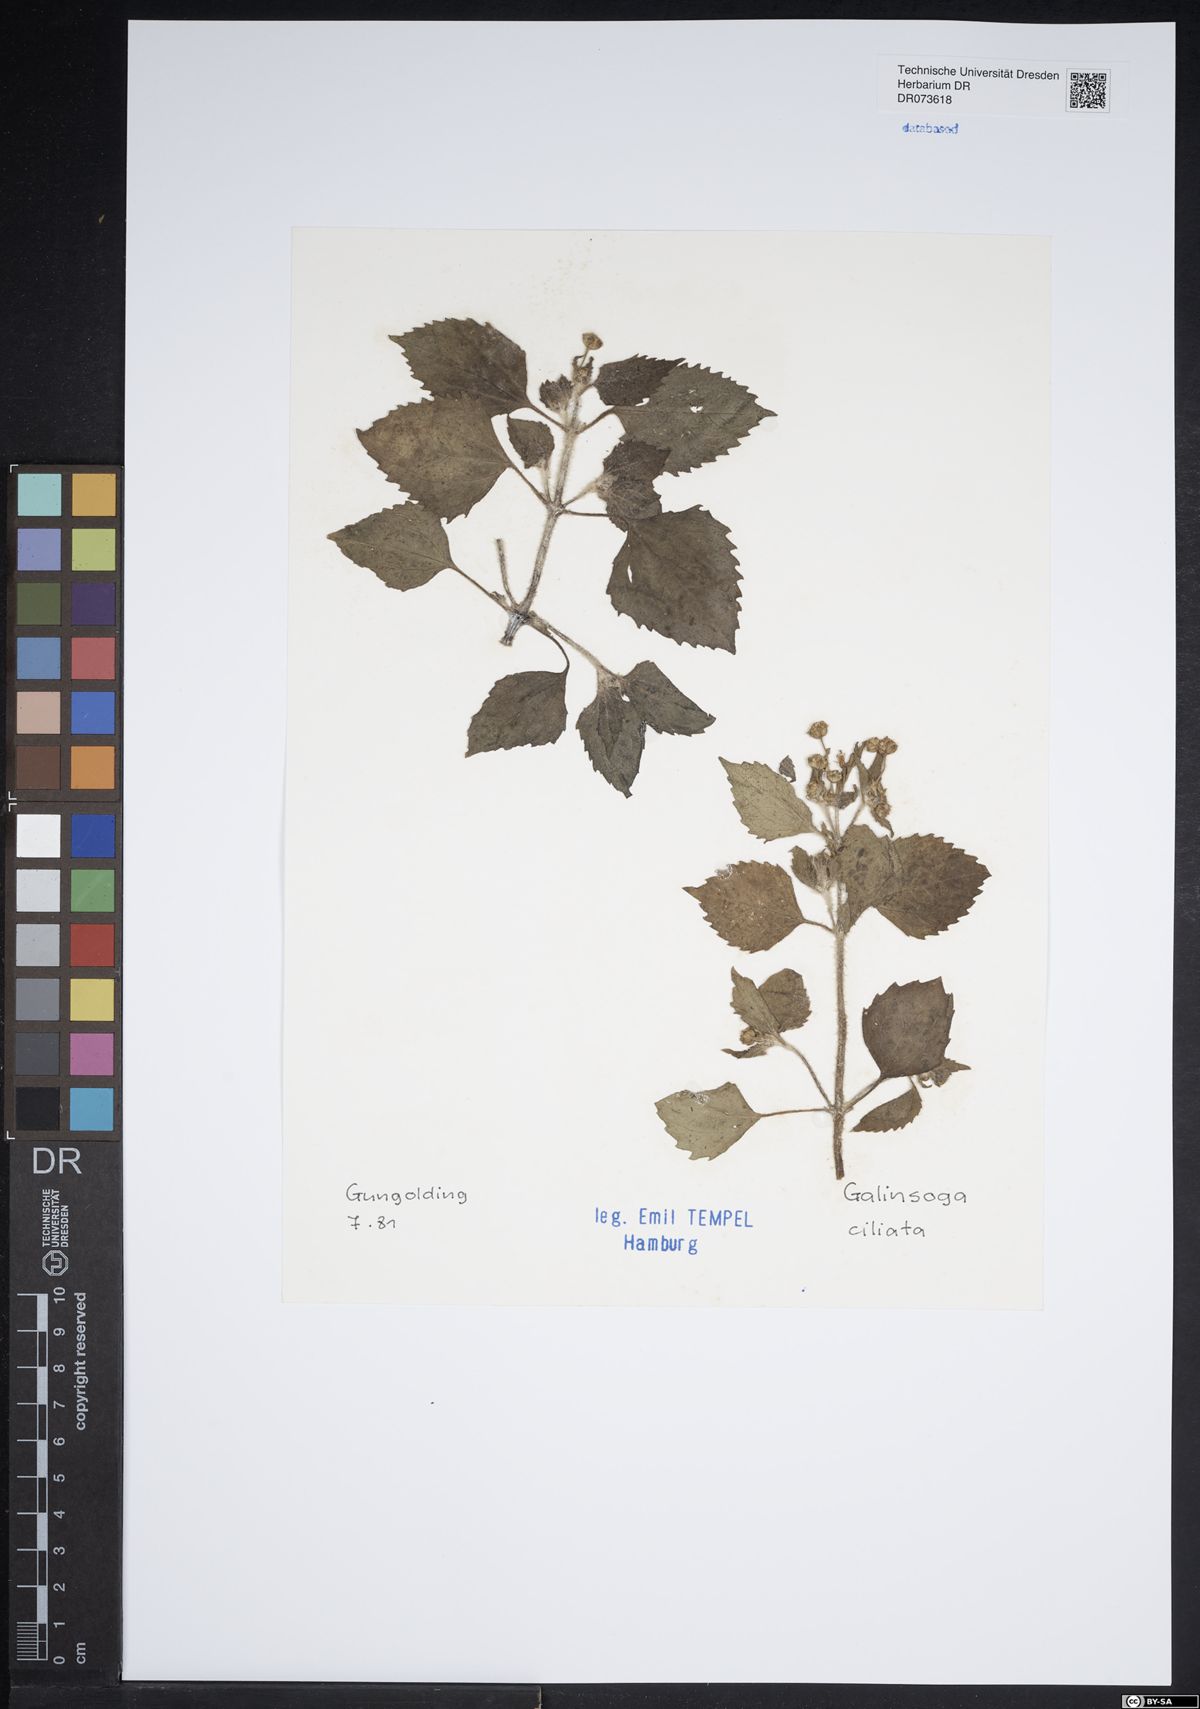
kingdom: Plantae
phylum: Tracheophyta
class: Magnoliopsida
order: Asterales
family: Asteraceae
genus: Galinsoga
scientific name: Galinsoga quadriradiata
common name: Shaggy soldier
